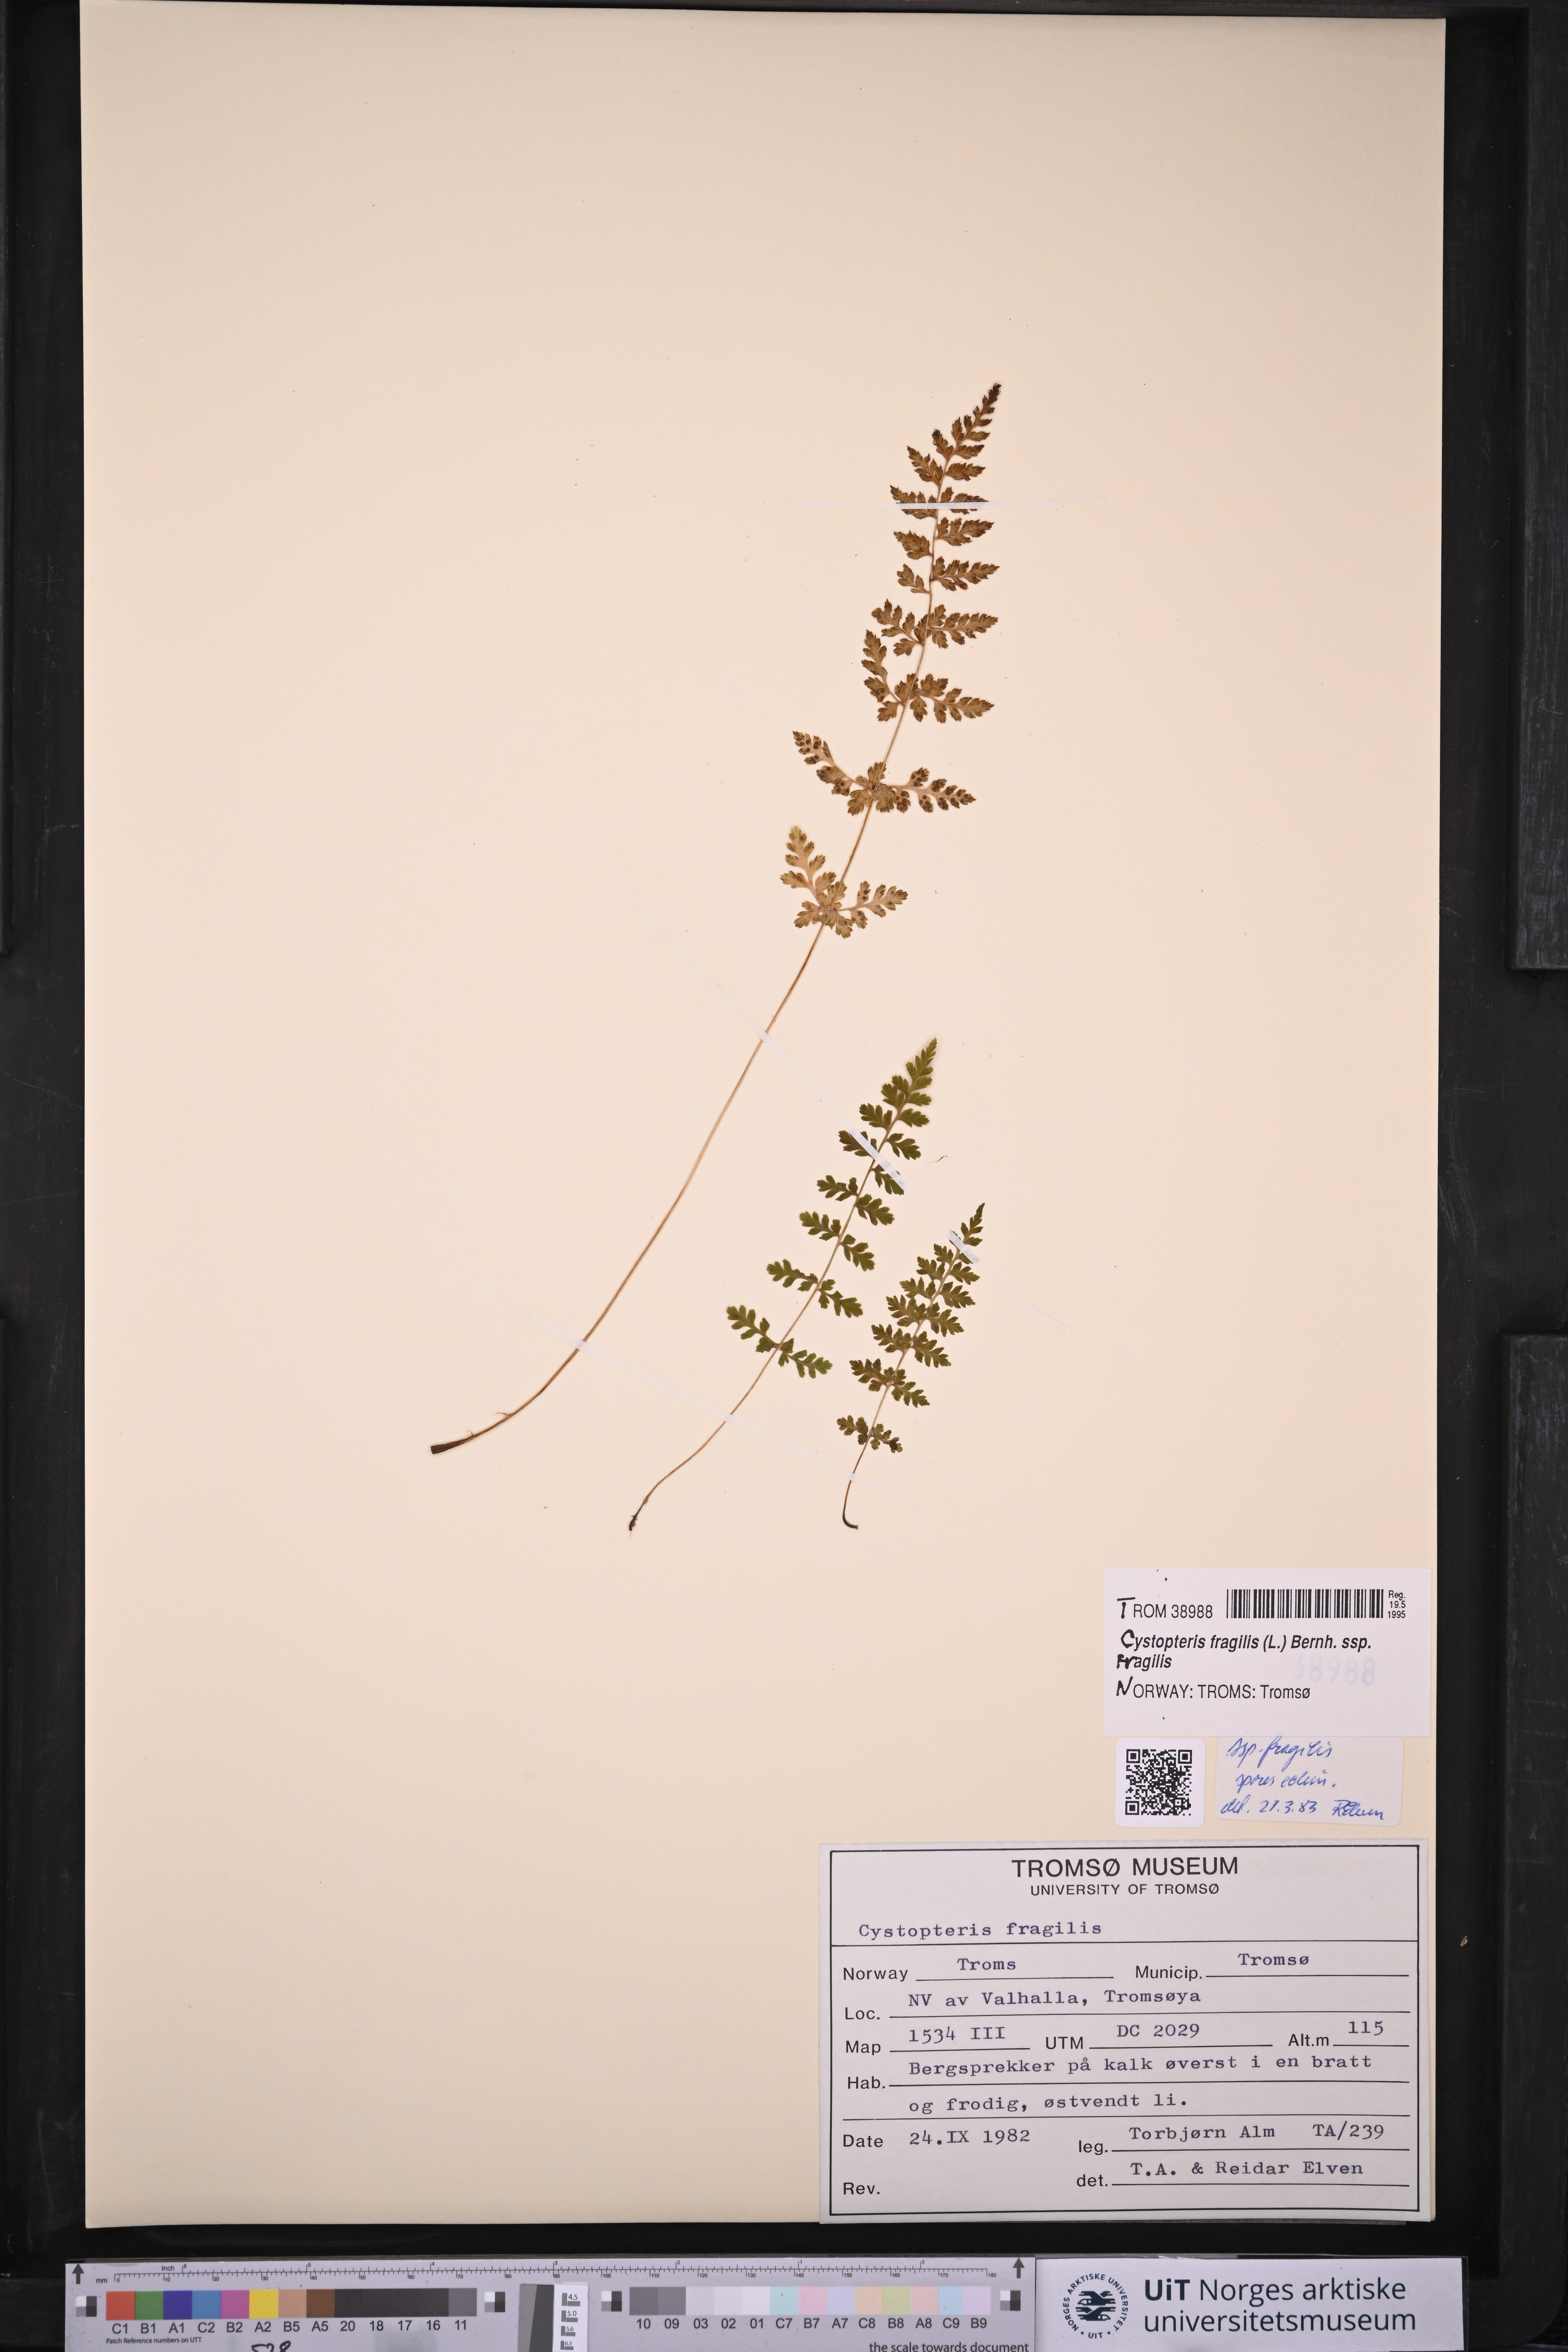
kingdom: Plantae
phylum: Tracheophyta
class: Polypodiopsida
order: Polypodiales
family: Cystopteridaceae
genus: Cystopteris
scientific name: Cystopteris fragilis
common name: Brittle bladder fern
